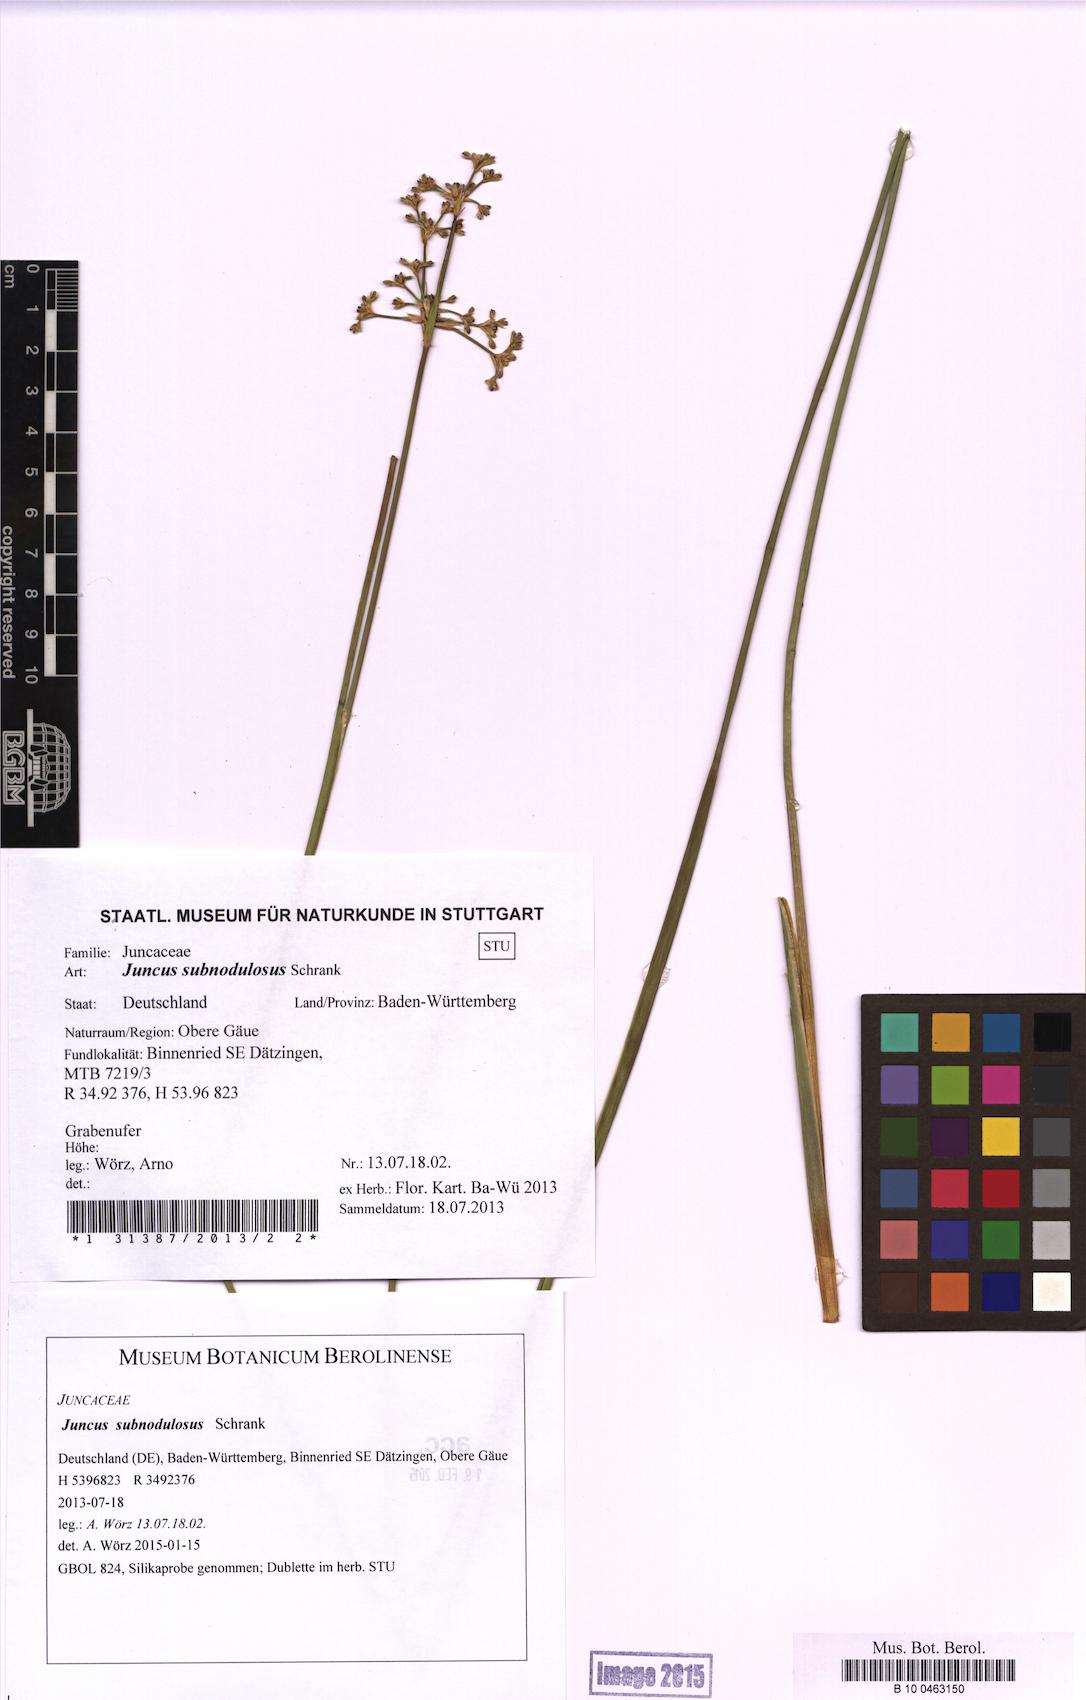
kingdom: Plantae
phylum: Tracheophyta
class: Liliopsida
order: Poales
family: Juncaceae
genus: Juncus
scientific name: Juncus subnodulosus
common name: Blunt-flowered rush
